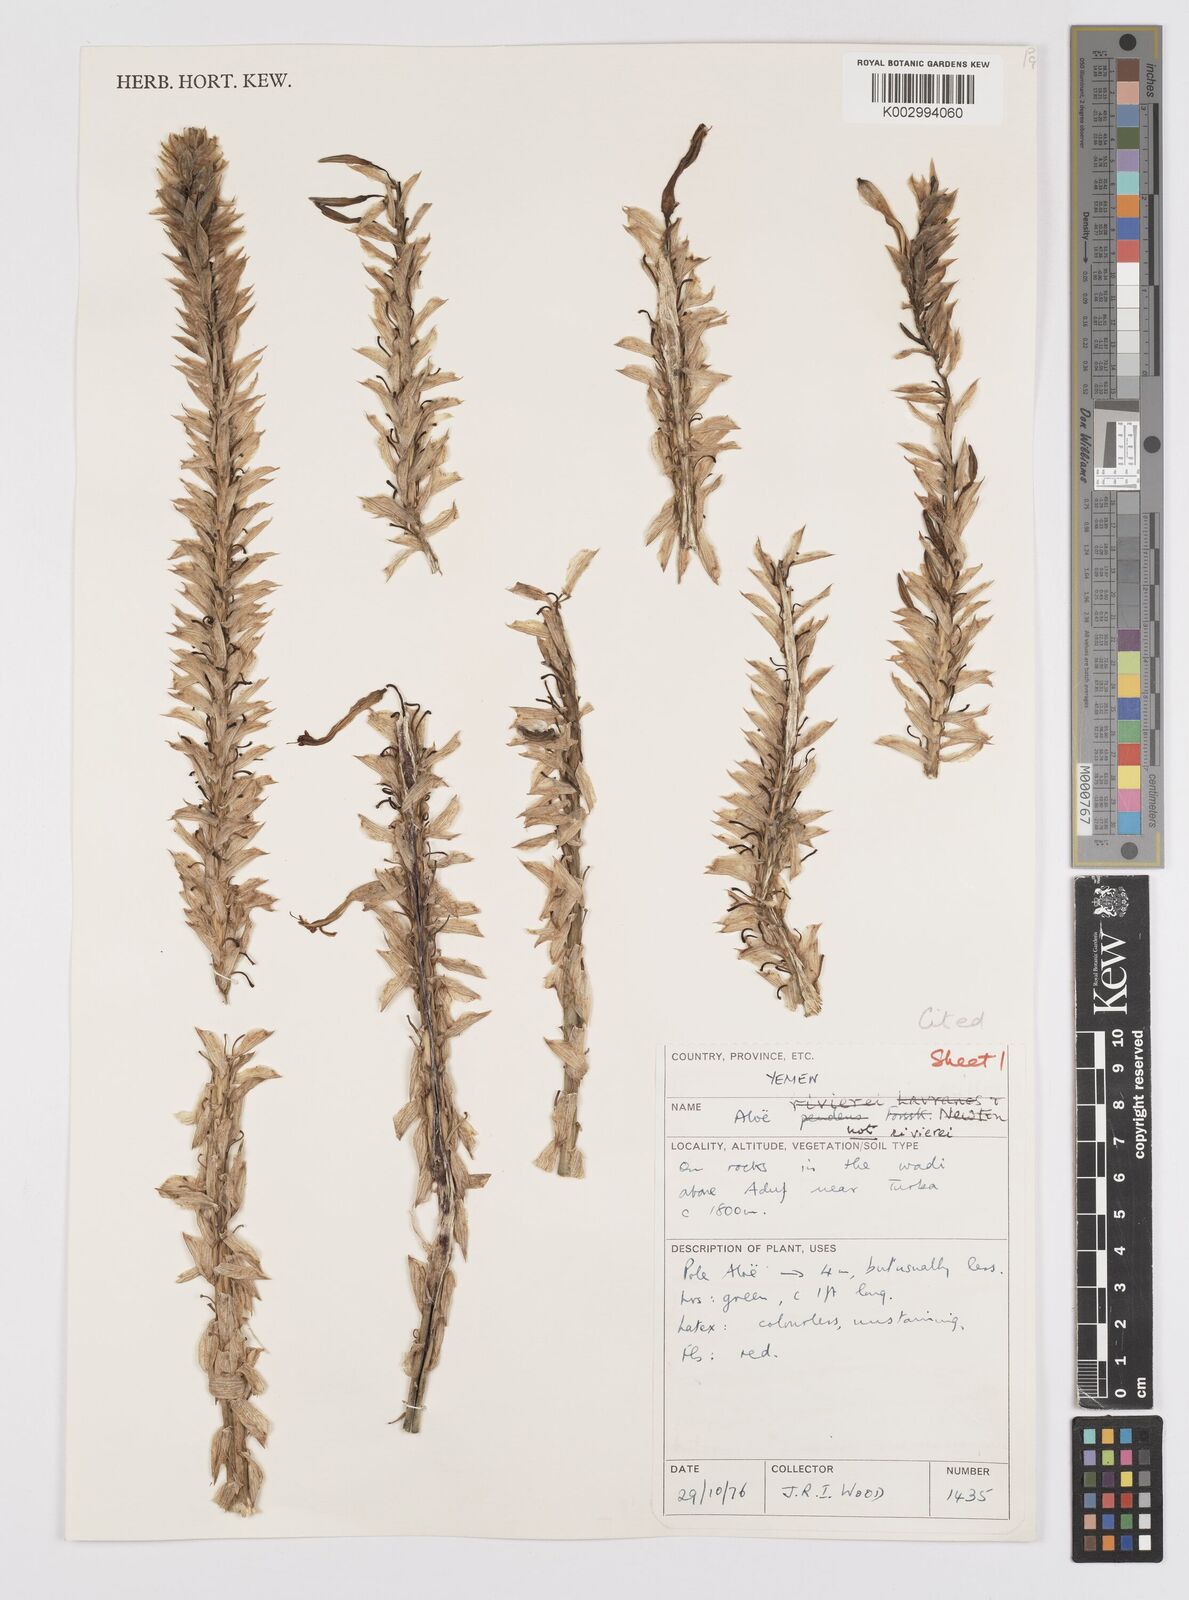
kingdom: Plantae
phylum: Tracheophyta
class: Liliopsida
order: Asparagales
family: Asphodelaceae
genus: Aloe
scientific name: Aloe rivierei
